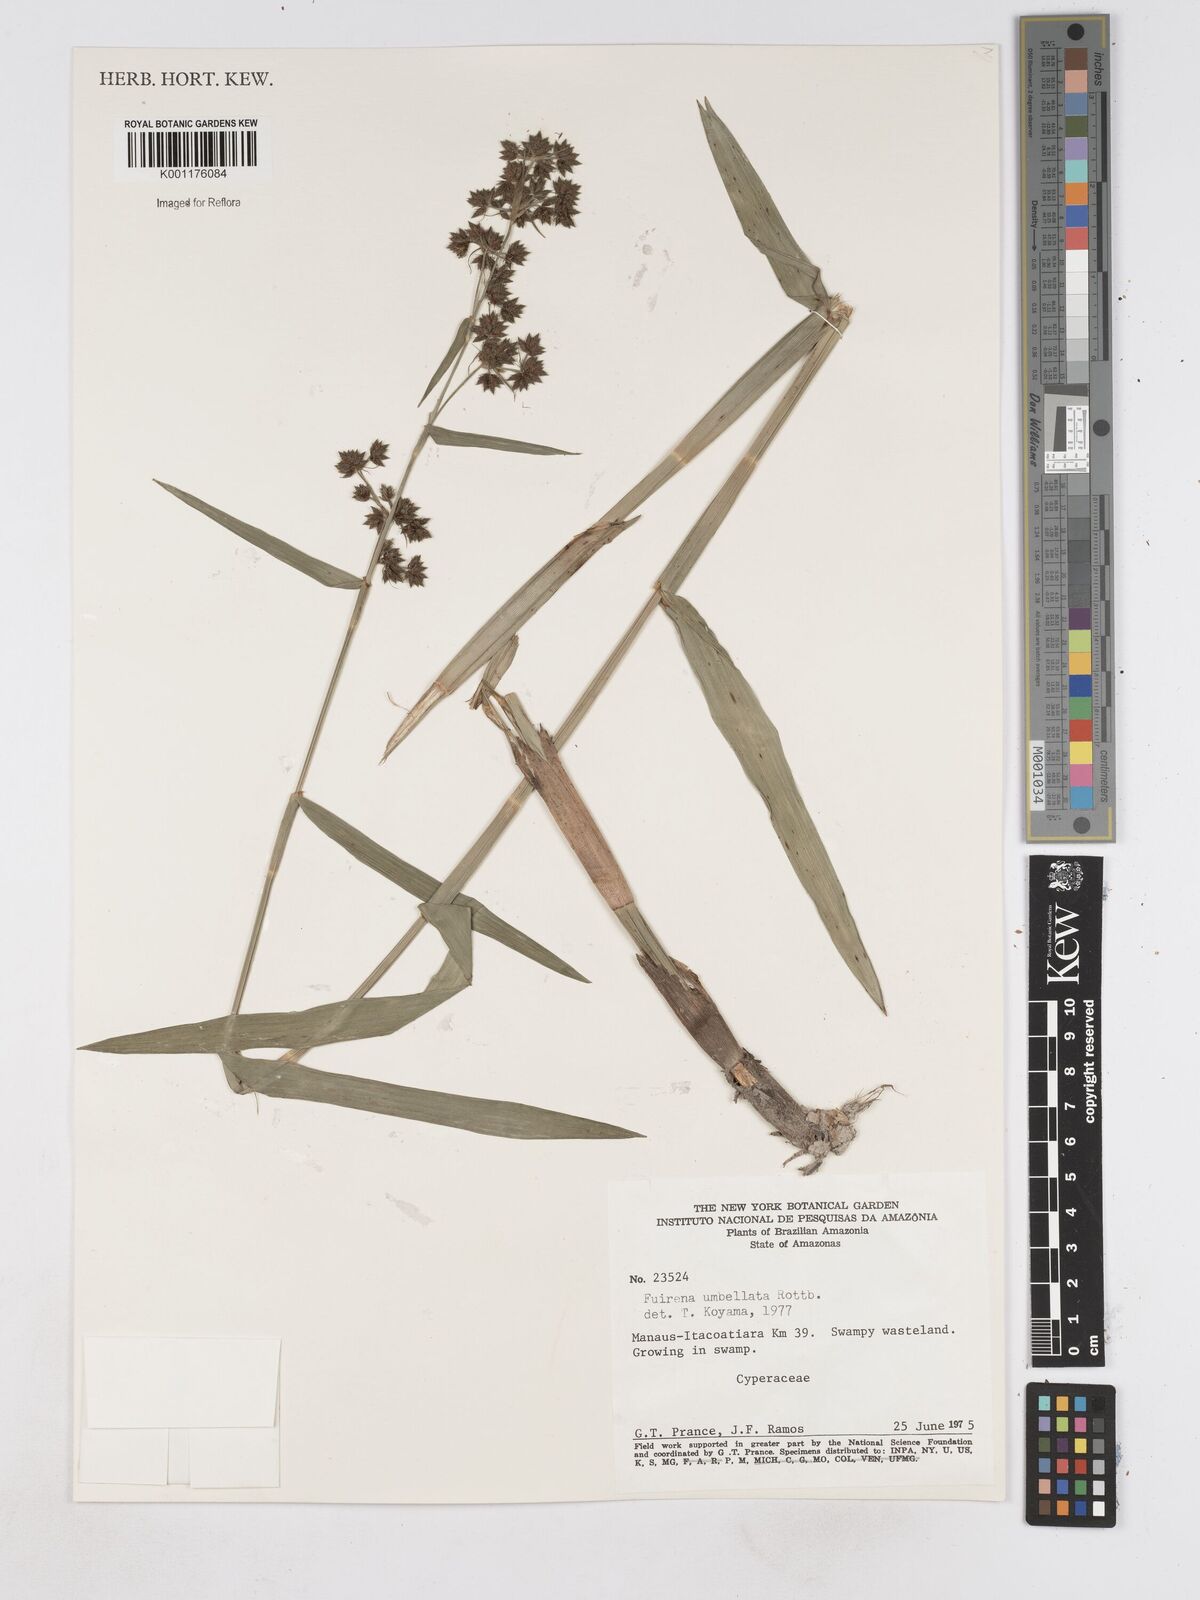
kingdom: Plantae
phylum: Tracheophyta
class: Liliopsida
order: Poales
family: Cyperaceae
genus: Fuirena
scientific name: Fuirena umbellata
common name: Yefen
